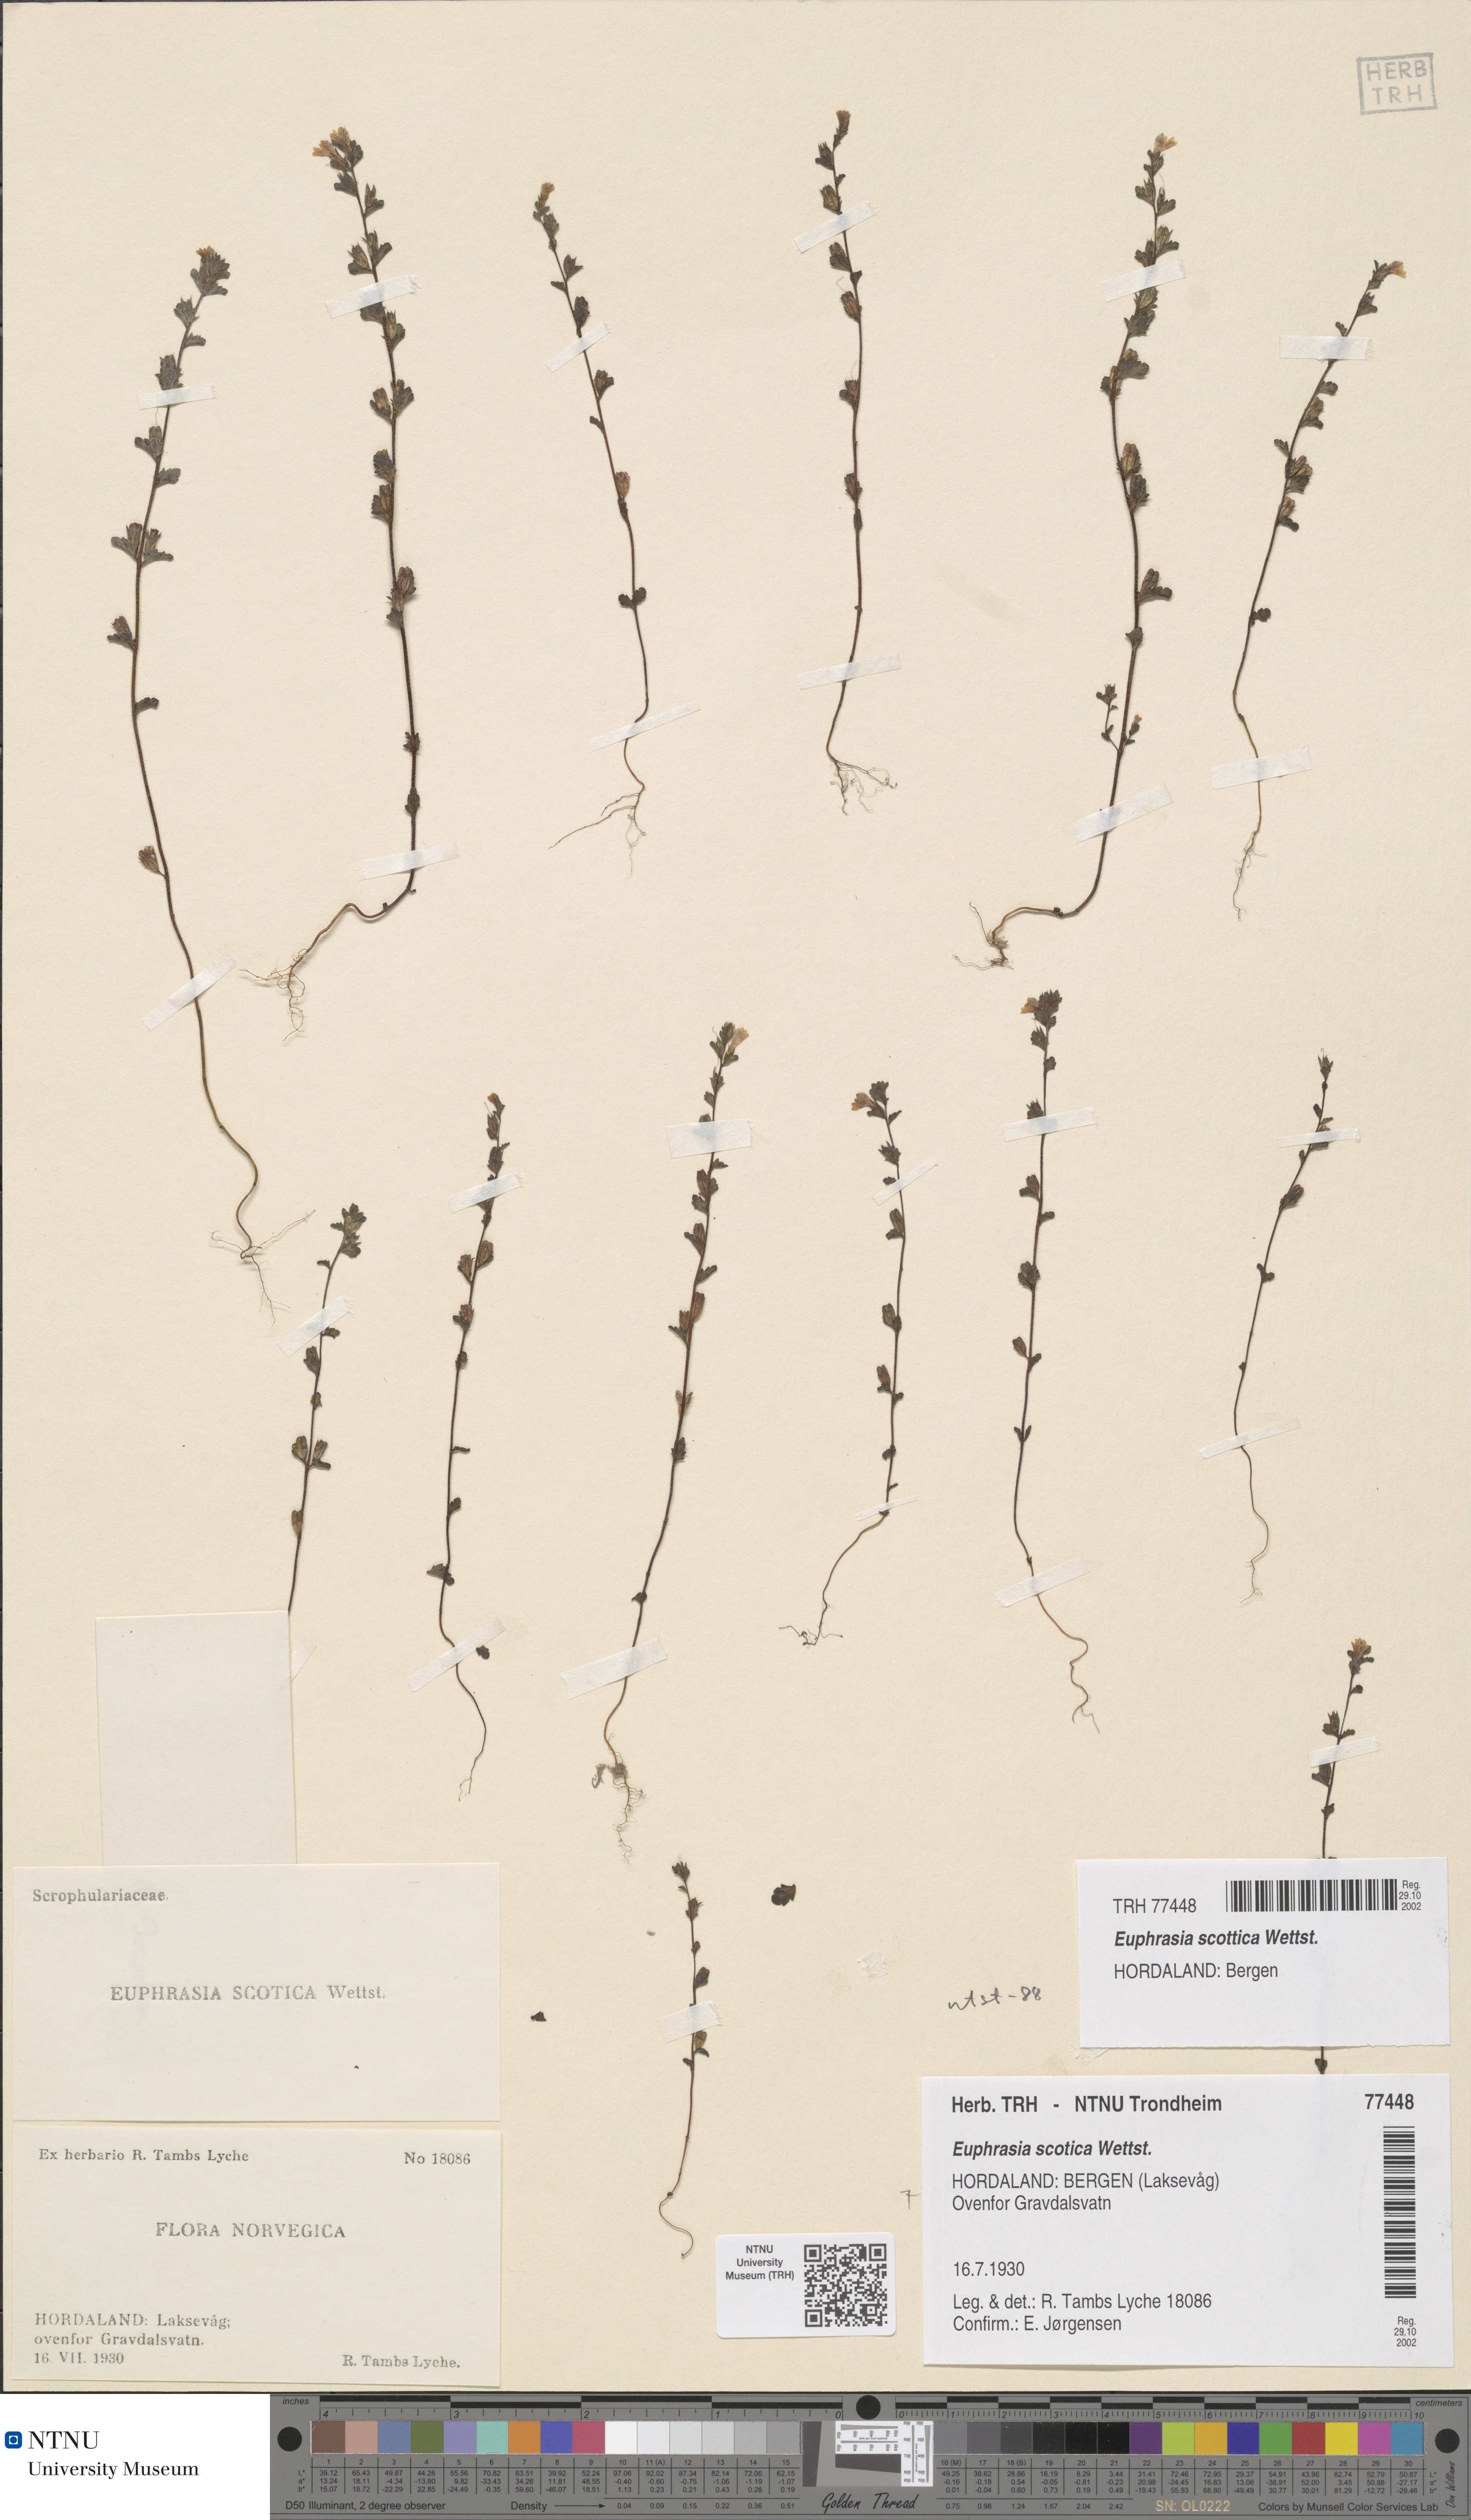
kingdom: Plantae
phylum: Tracheophyta
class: Magnoliopsida
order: Lamiales
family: Orobanchaceae
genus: Euphrasia
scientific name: Euphrasia scottica
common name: Slender scottish eyebright
